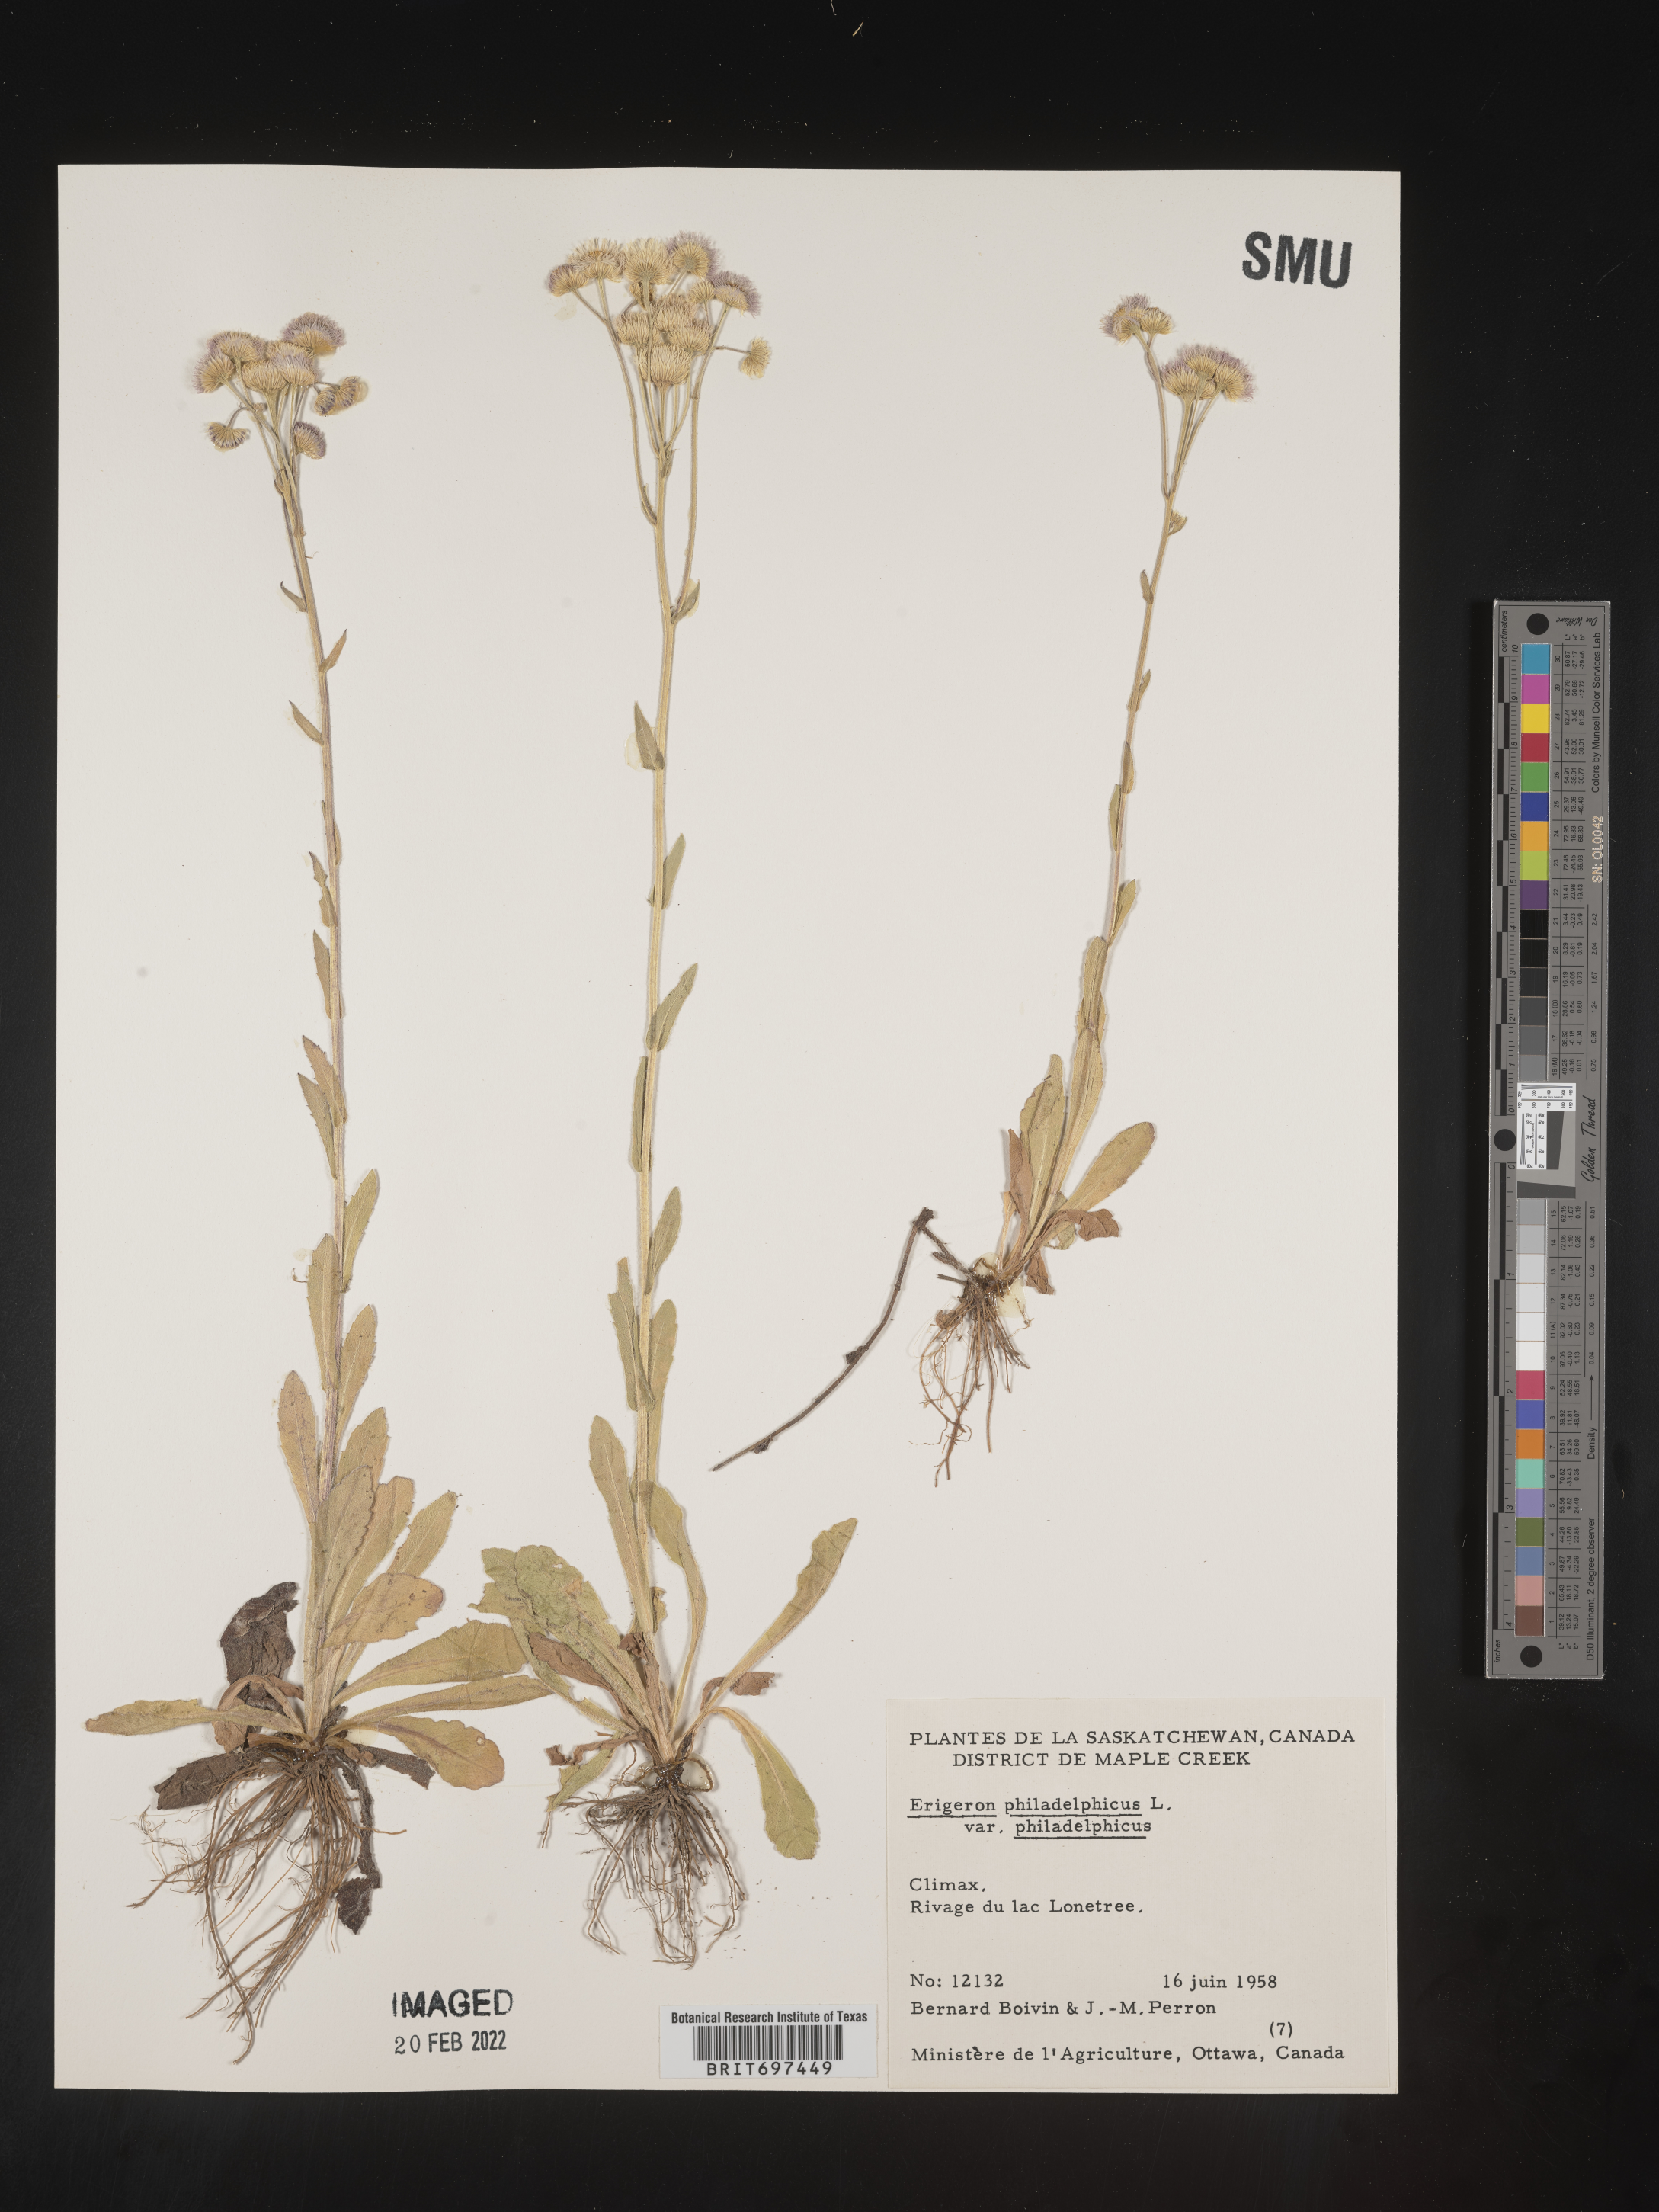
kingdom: Plantae
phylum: Tracheophyta
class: Magnoliopsida
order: Asterales
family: Asteraceae
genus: Erigeron
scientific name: Erigeron philadelphicus
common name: Robin's-plantain
